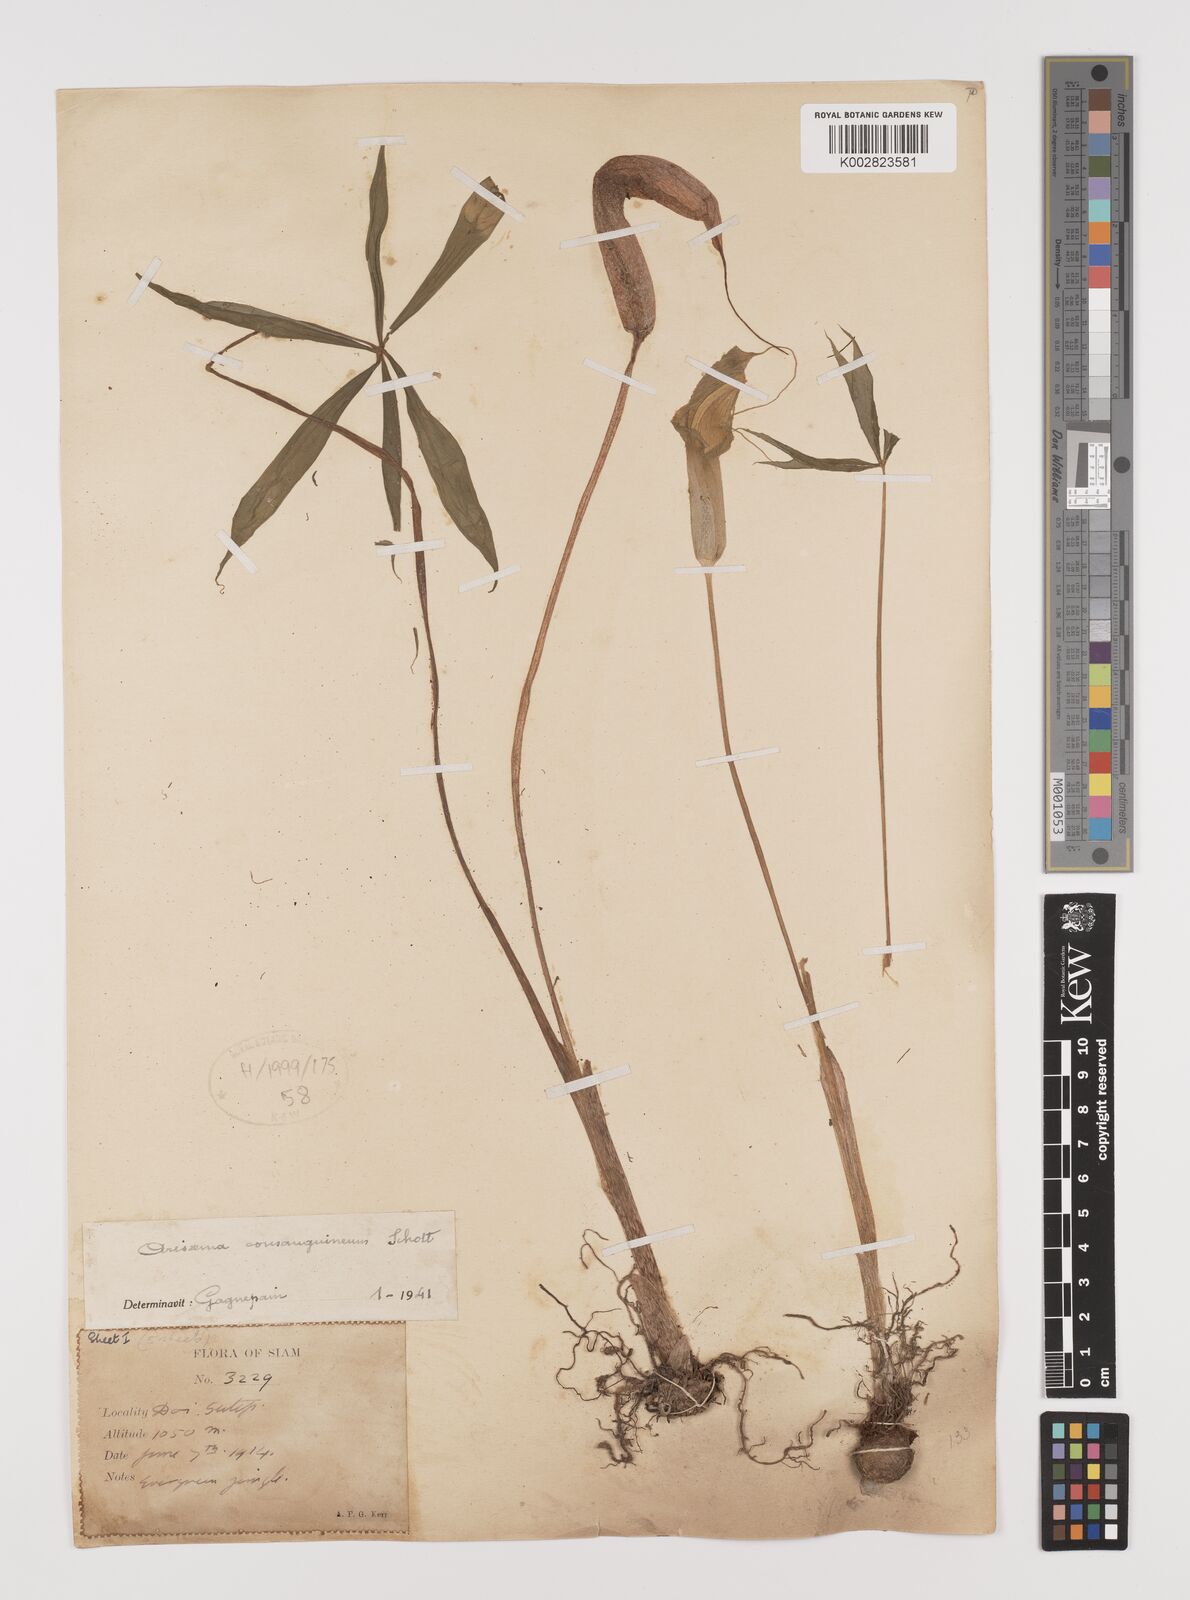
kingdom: Plantae
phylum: Tracheophyta
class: Liliopsida
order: Alismatales
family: Araceae
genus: Arisaema
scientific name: Arisaema consanguineum
